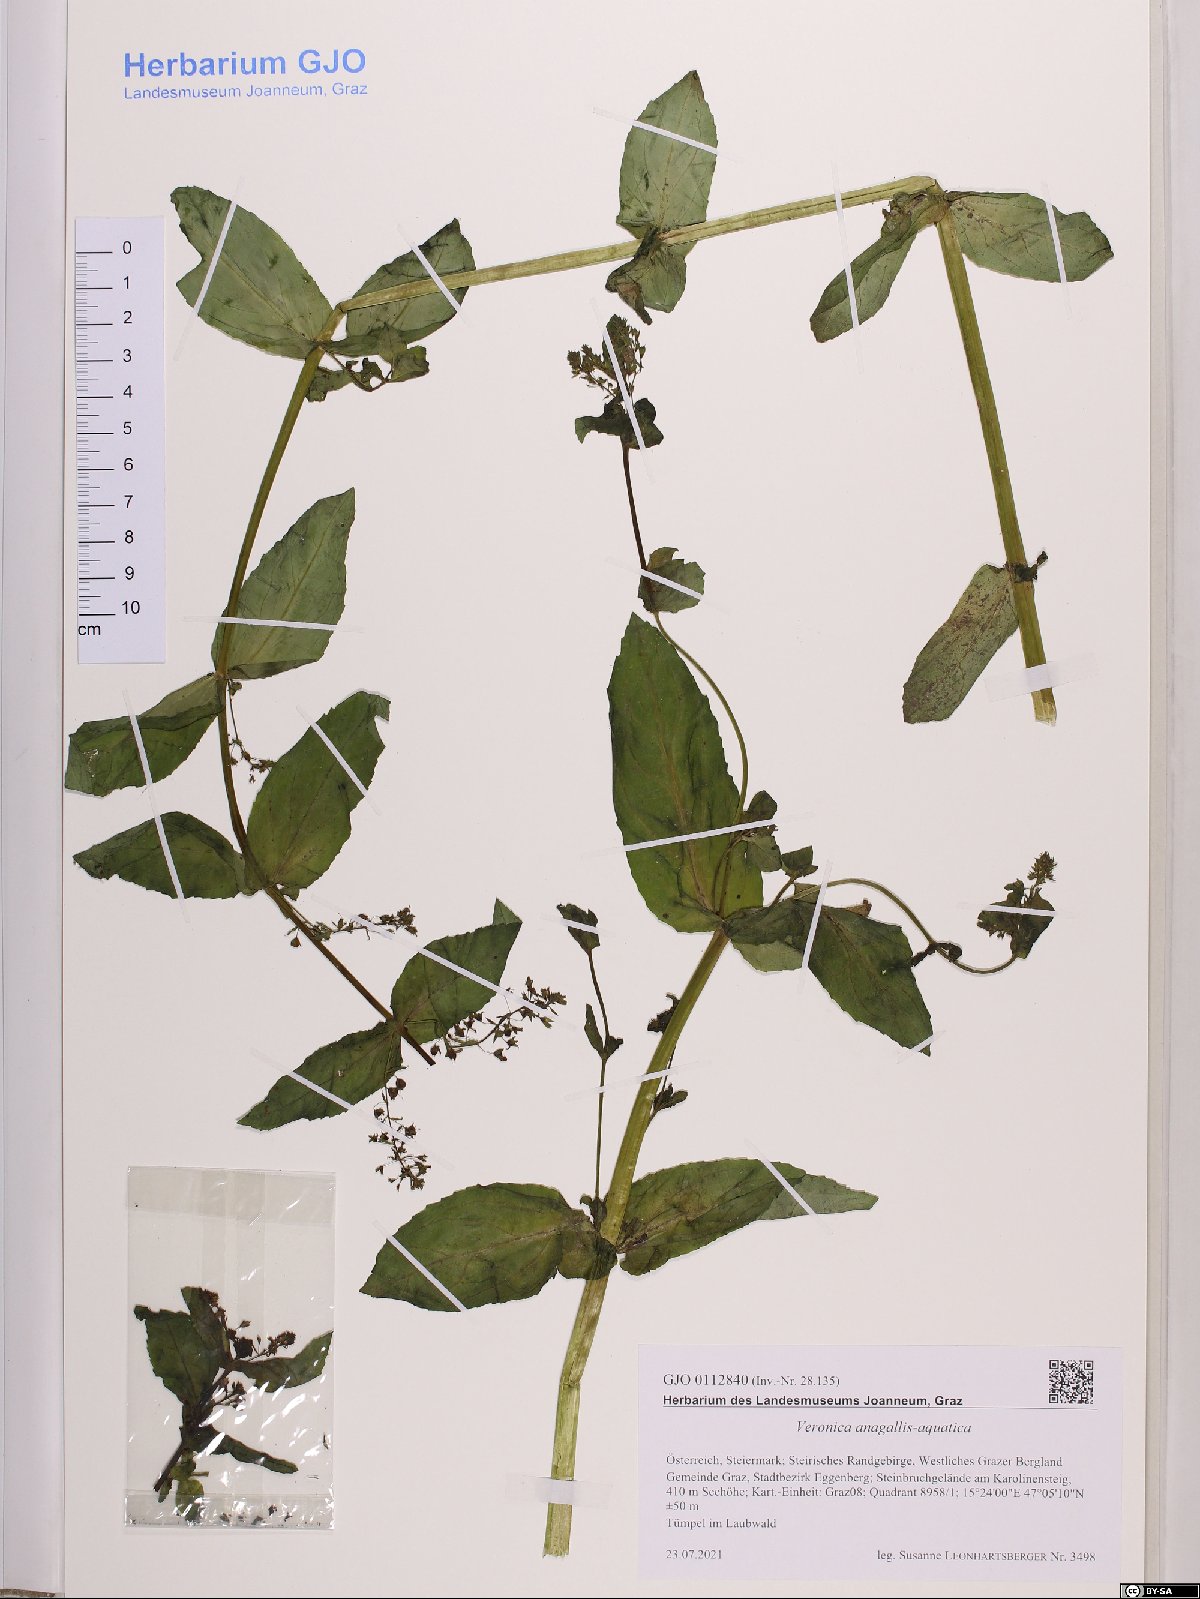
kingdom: Plantae
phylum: Tracheophyta
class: Magnoliopsida
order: Lamiales
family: Plantaginaceae
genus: Veronica
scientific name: Veronica anagallis-aquatica
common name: Water speedwell
